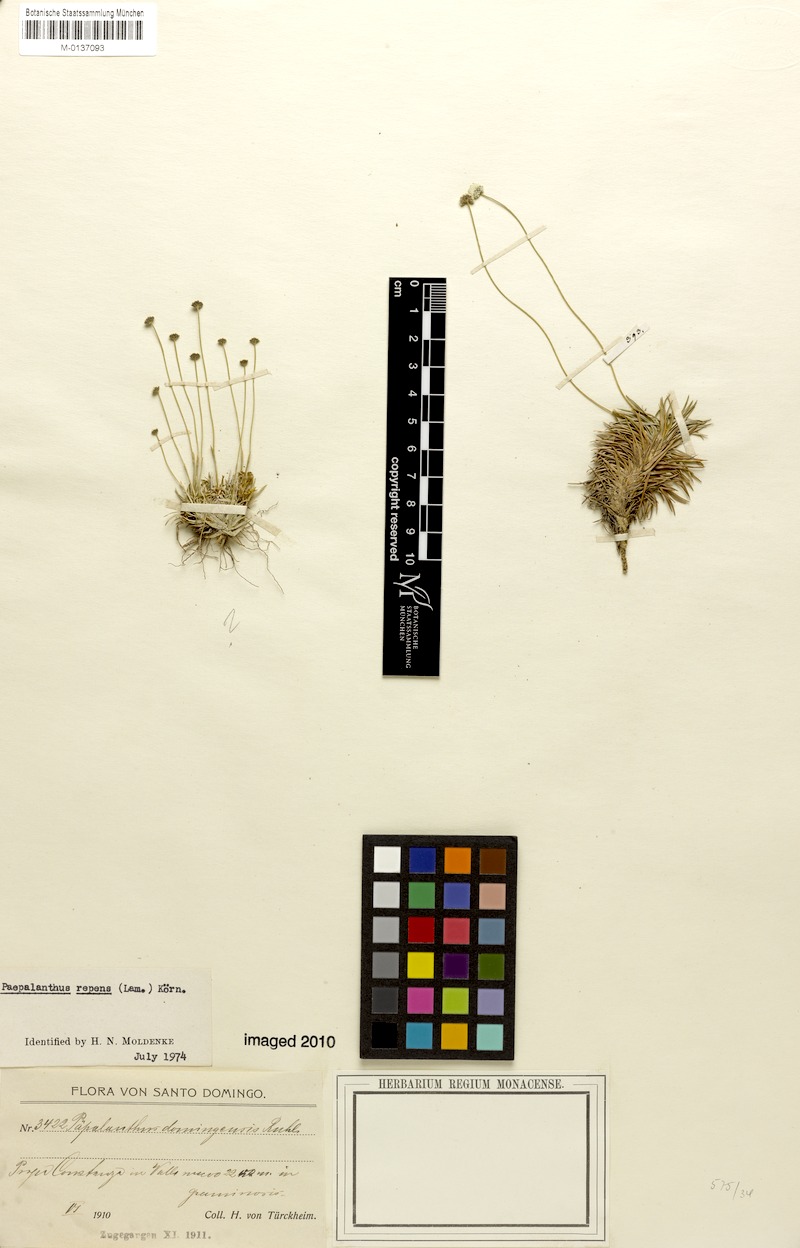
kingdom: Plantae
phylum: Tracheophyta
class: Liliopsida
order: Poales
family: Eriocaulaceae
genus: Paepalanthus
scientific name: Paepalanthus repens
